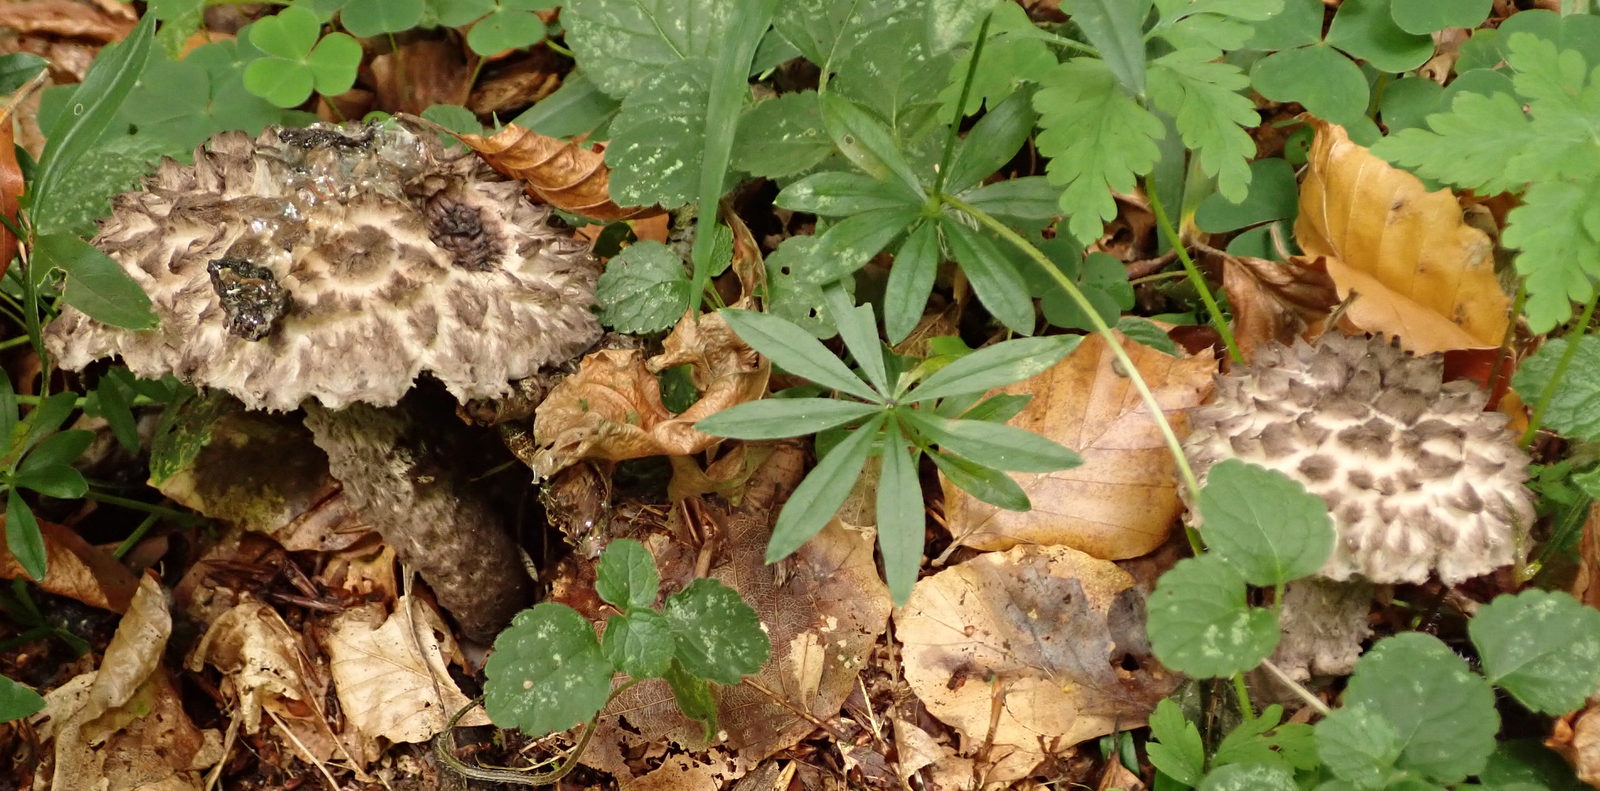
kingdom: Fungi
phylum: Basidiomycota
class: Agaricomycetes
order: Boletales
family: Boletaceae
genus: Strobilomyces
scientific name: Strobilomyces strobilaceus
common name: koglerørhat
